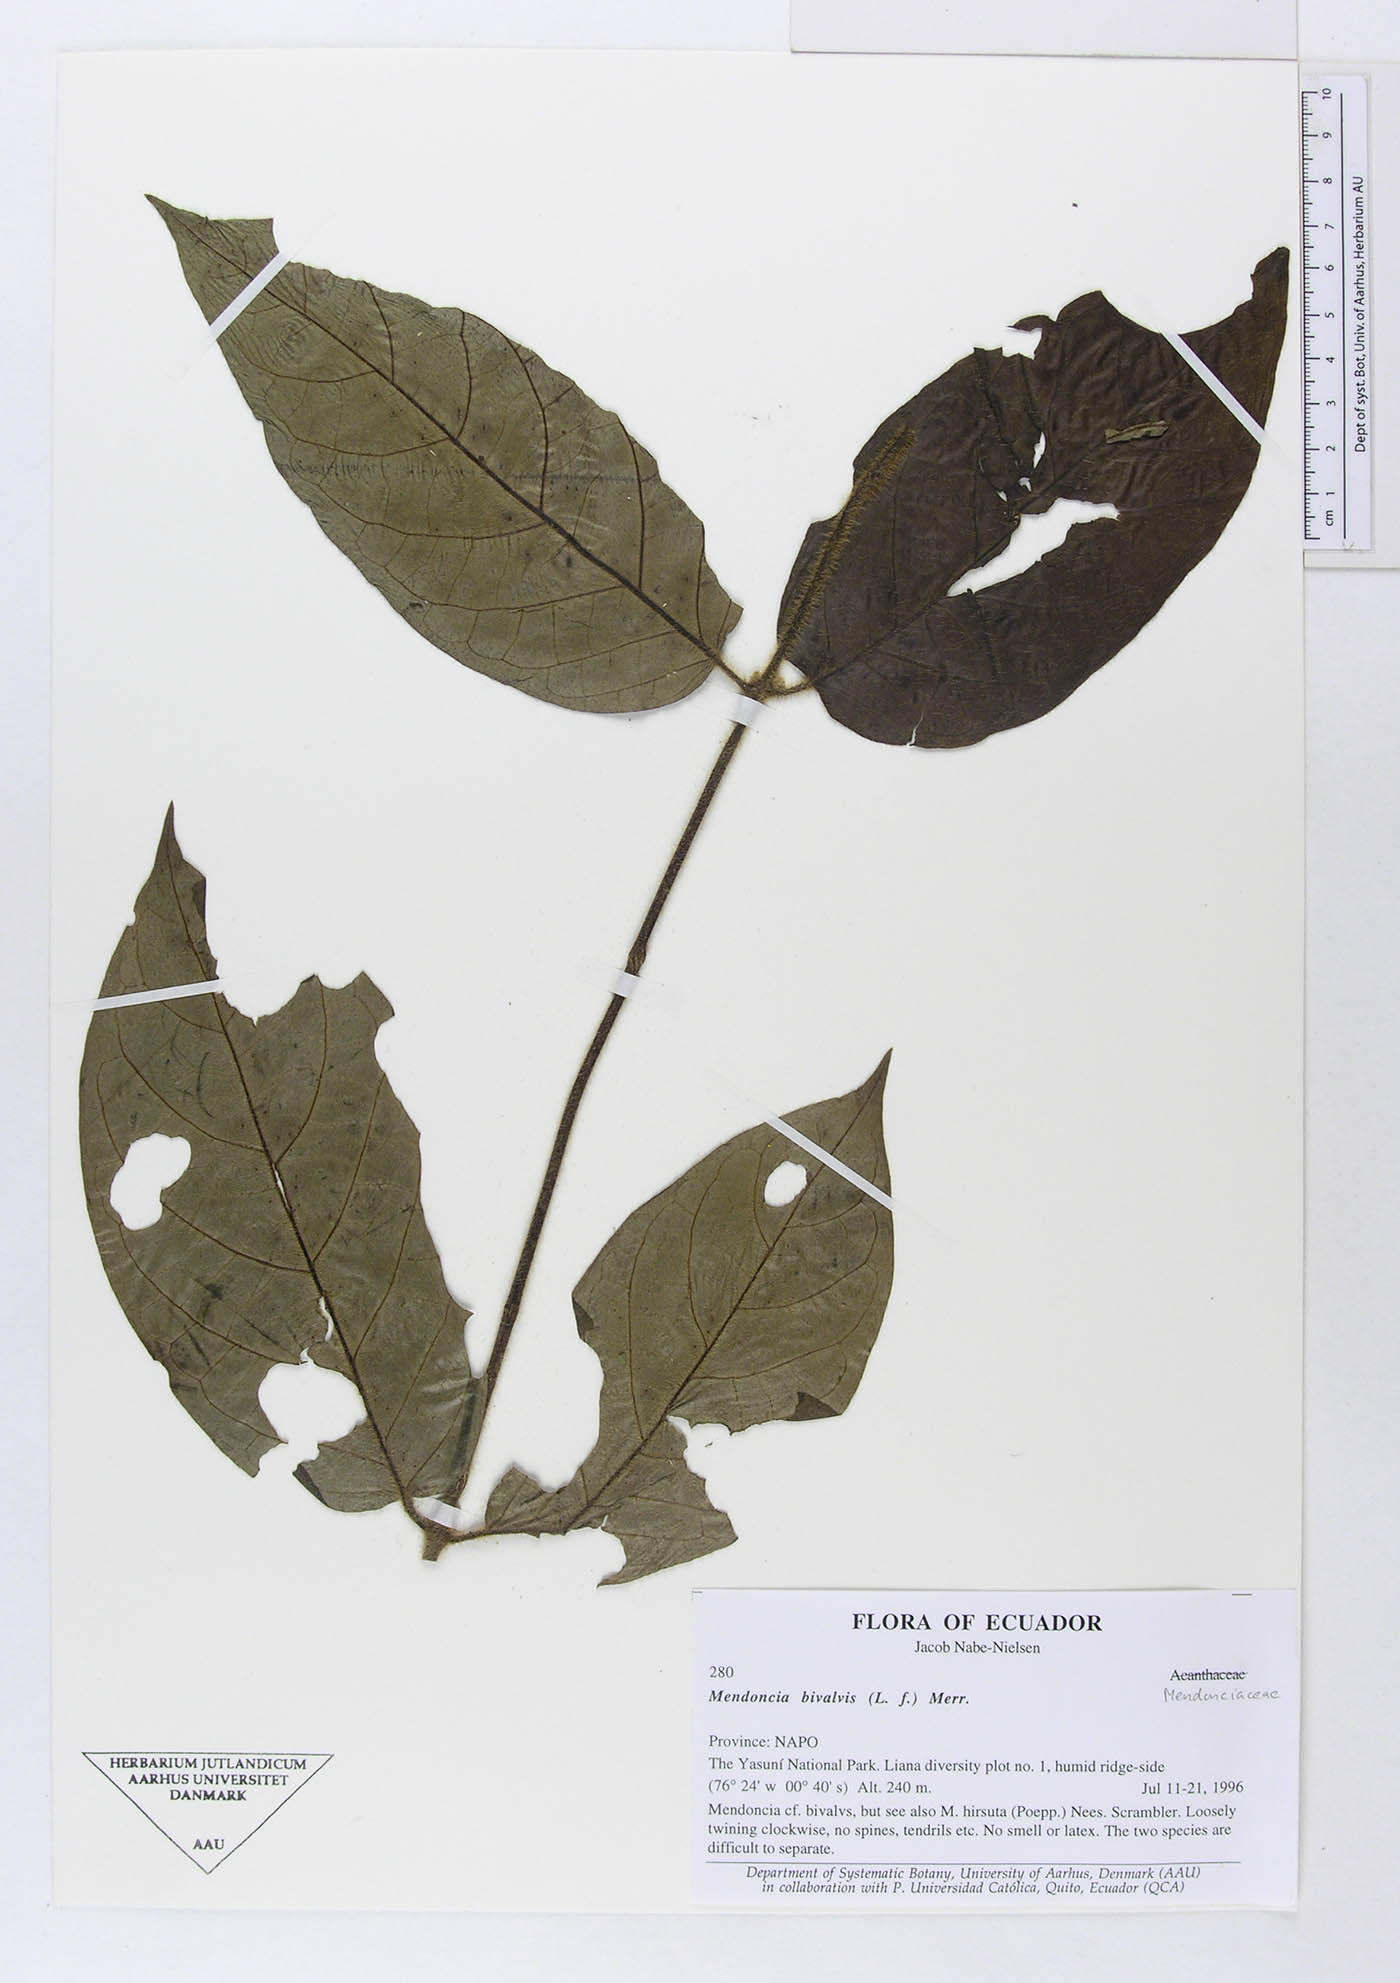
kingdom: Plantae
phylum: Tracheophyta
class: Magnoliopsida
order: Lamiales
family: Acanthaceae
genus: Mendoncia
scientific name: Mendoncia bivalvis
